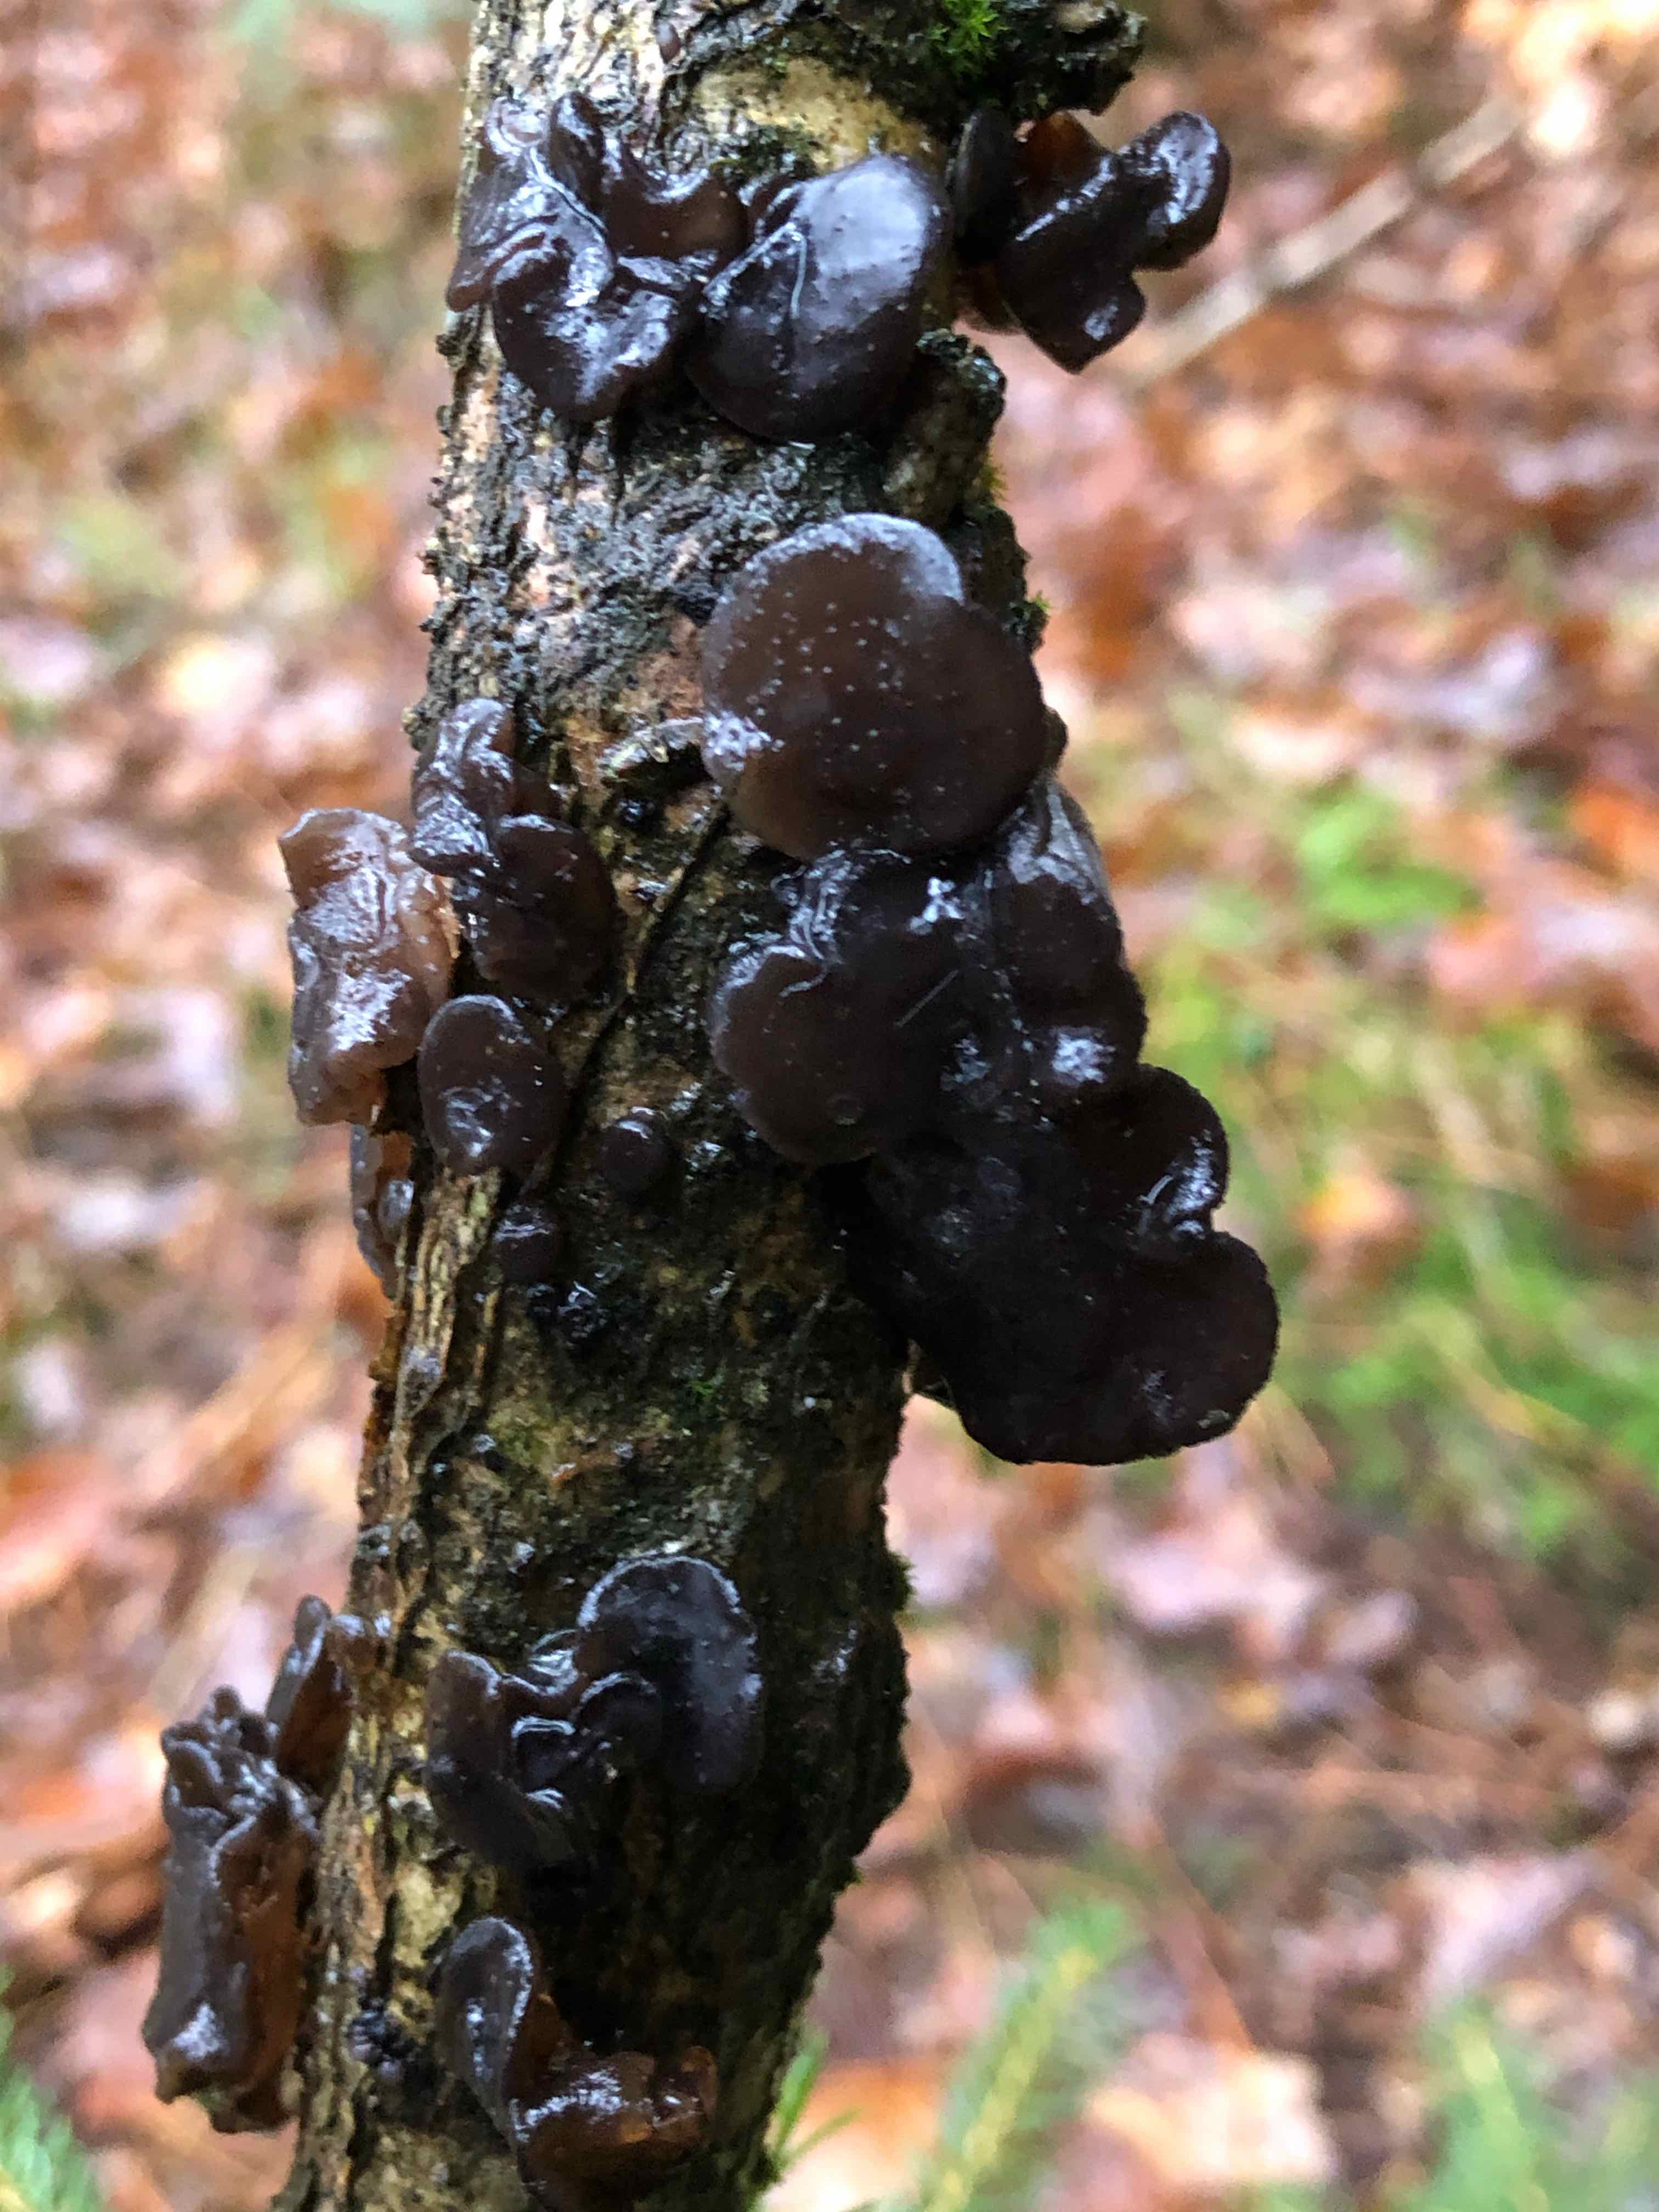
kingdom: Fungi
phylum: Basidiomycota
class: Agaricomycetes
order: Auriculariales
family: Auriculariaceae
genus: Exidia
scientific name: Exidia glandulosa
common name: ege-bævretop
